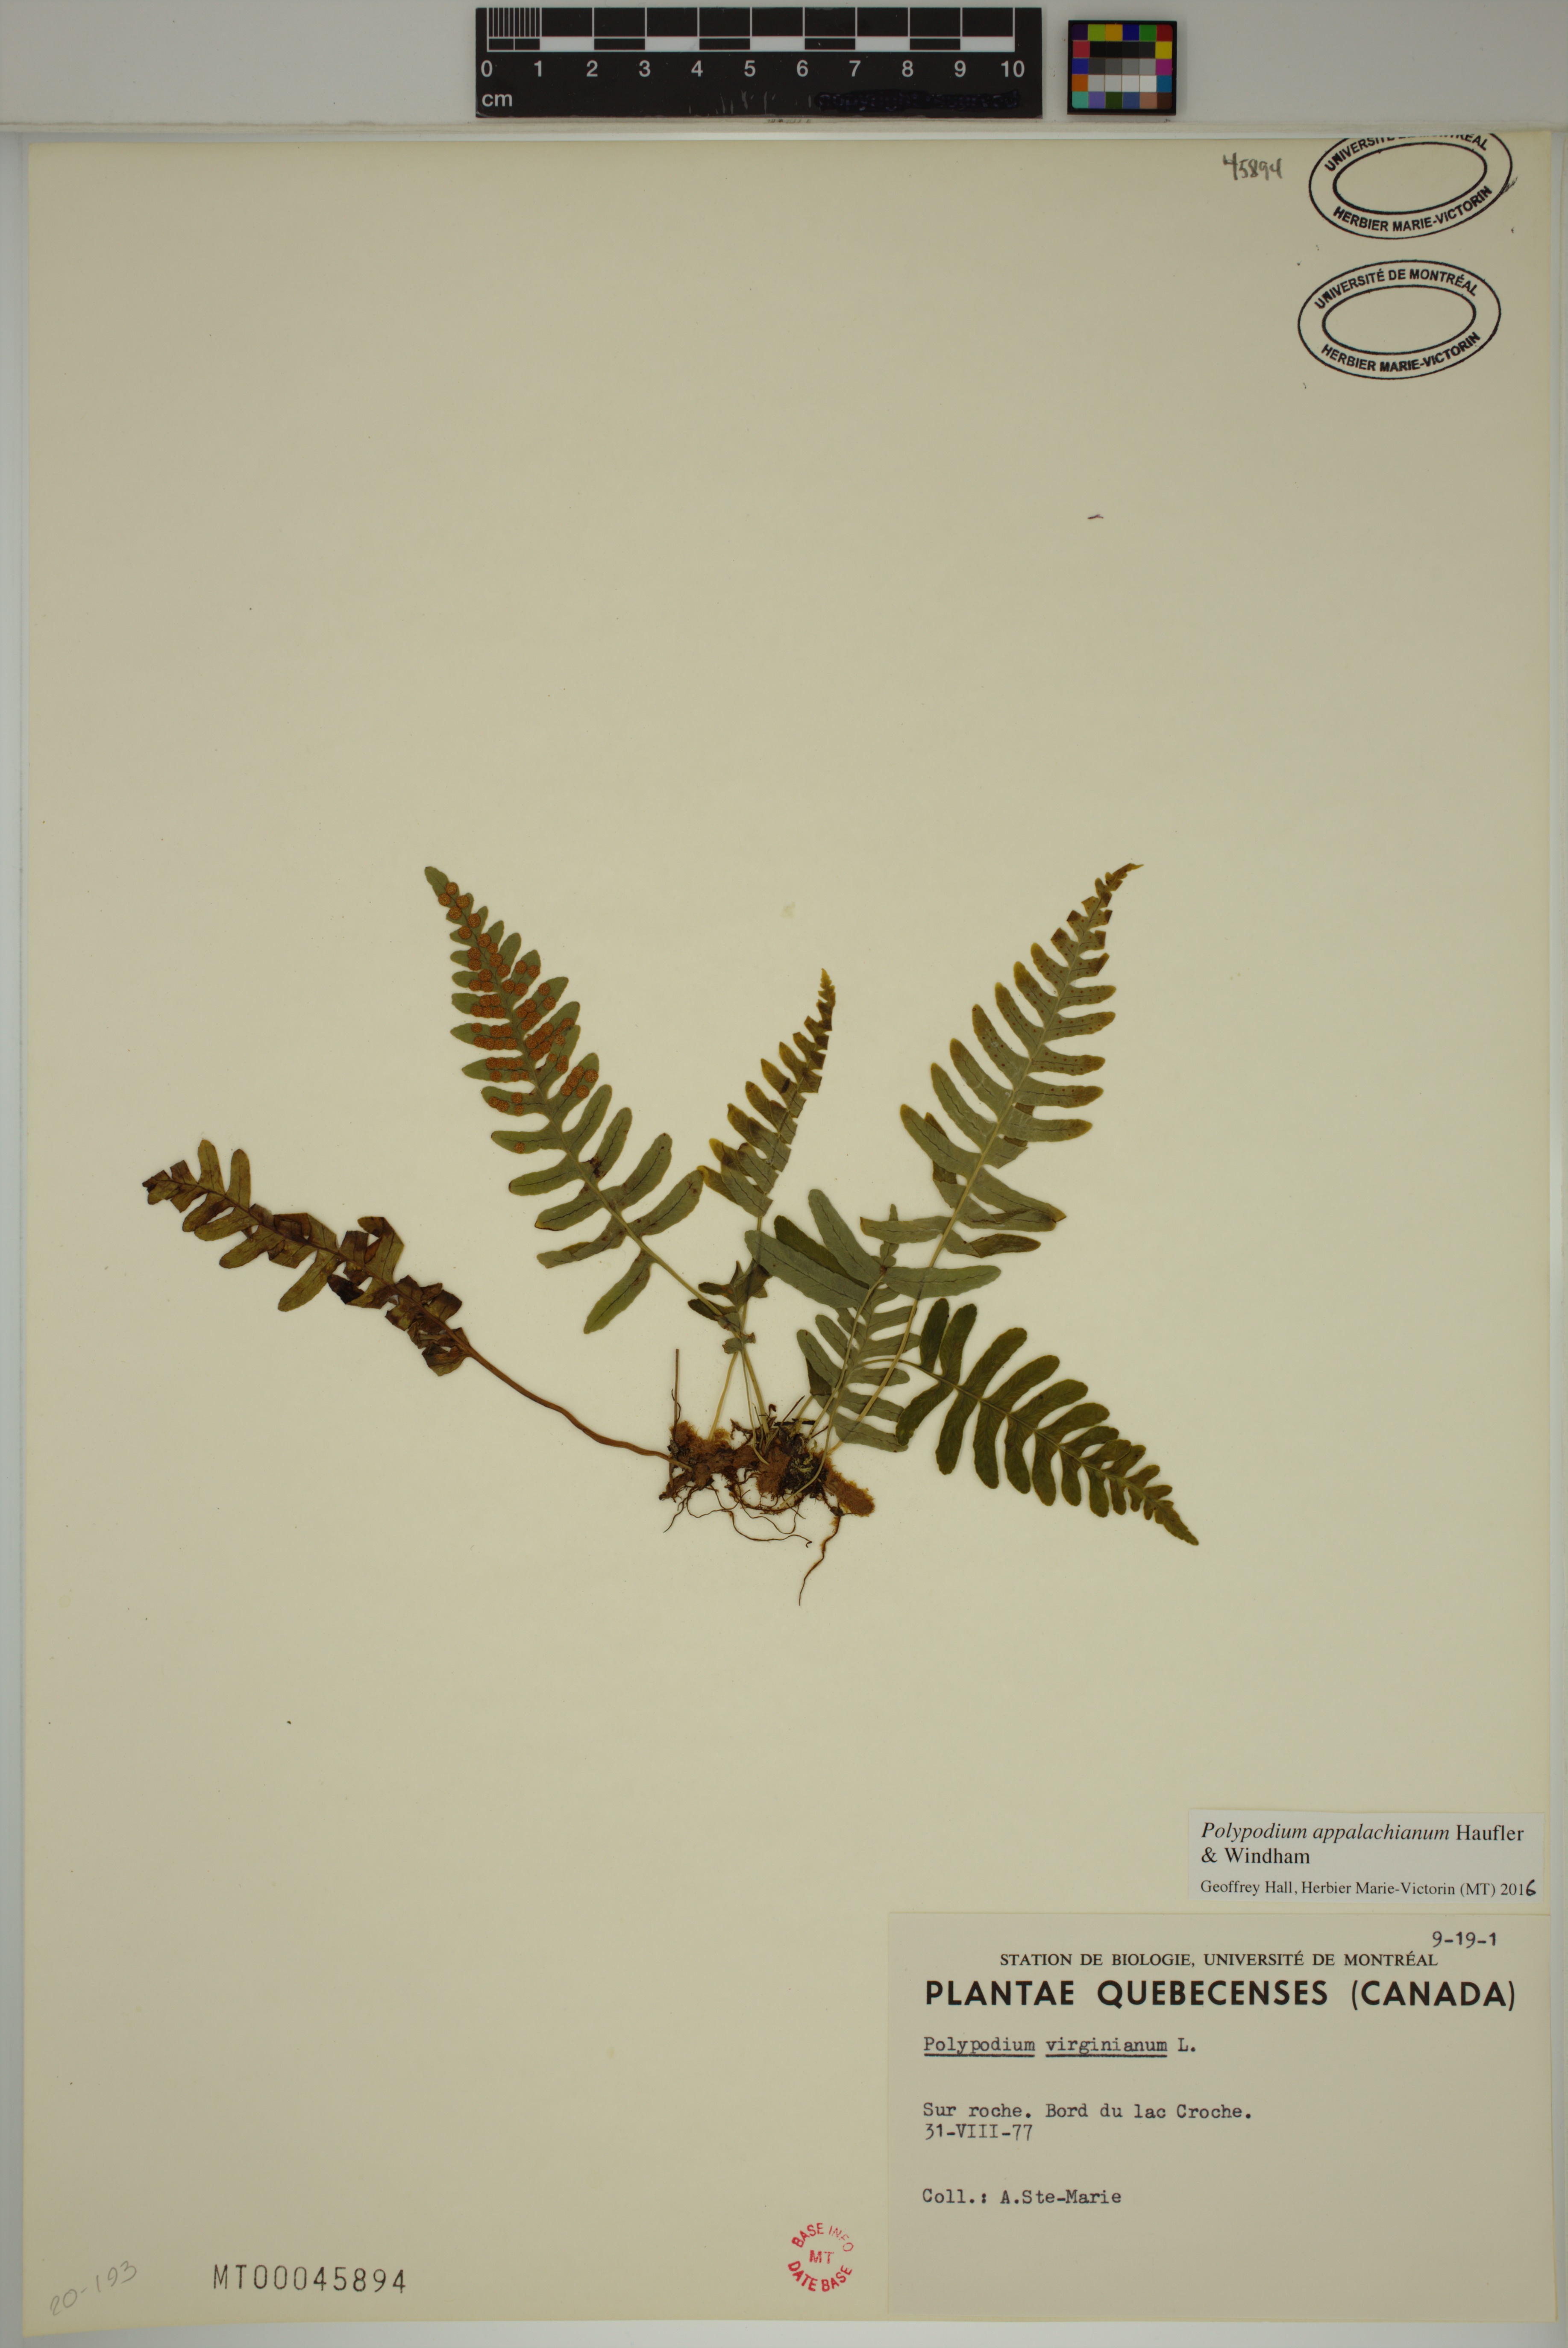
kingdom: Plantae
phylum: Tracheophyta
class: Polypodiopsida
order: Polypodiales
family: Polypodiaceae
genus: Polypodium
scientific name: Polypodium appalachianum
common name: Appalachian polypody
